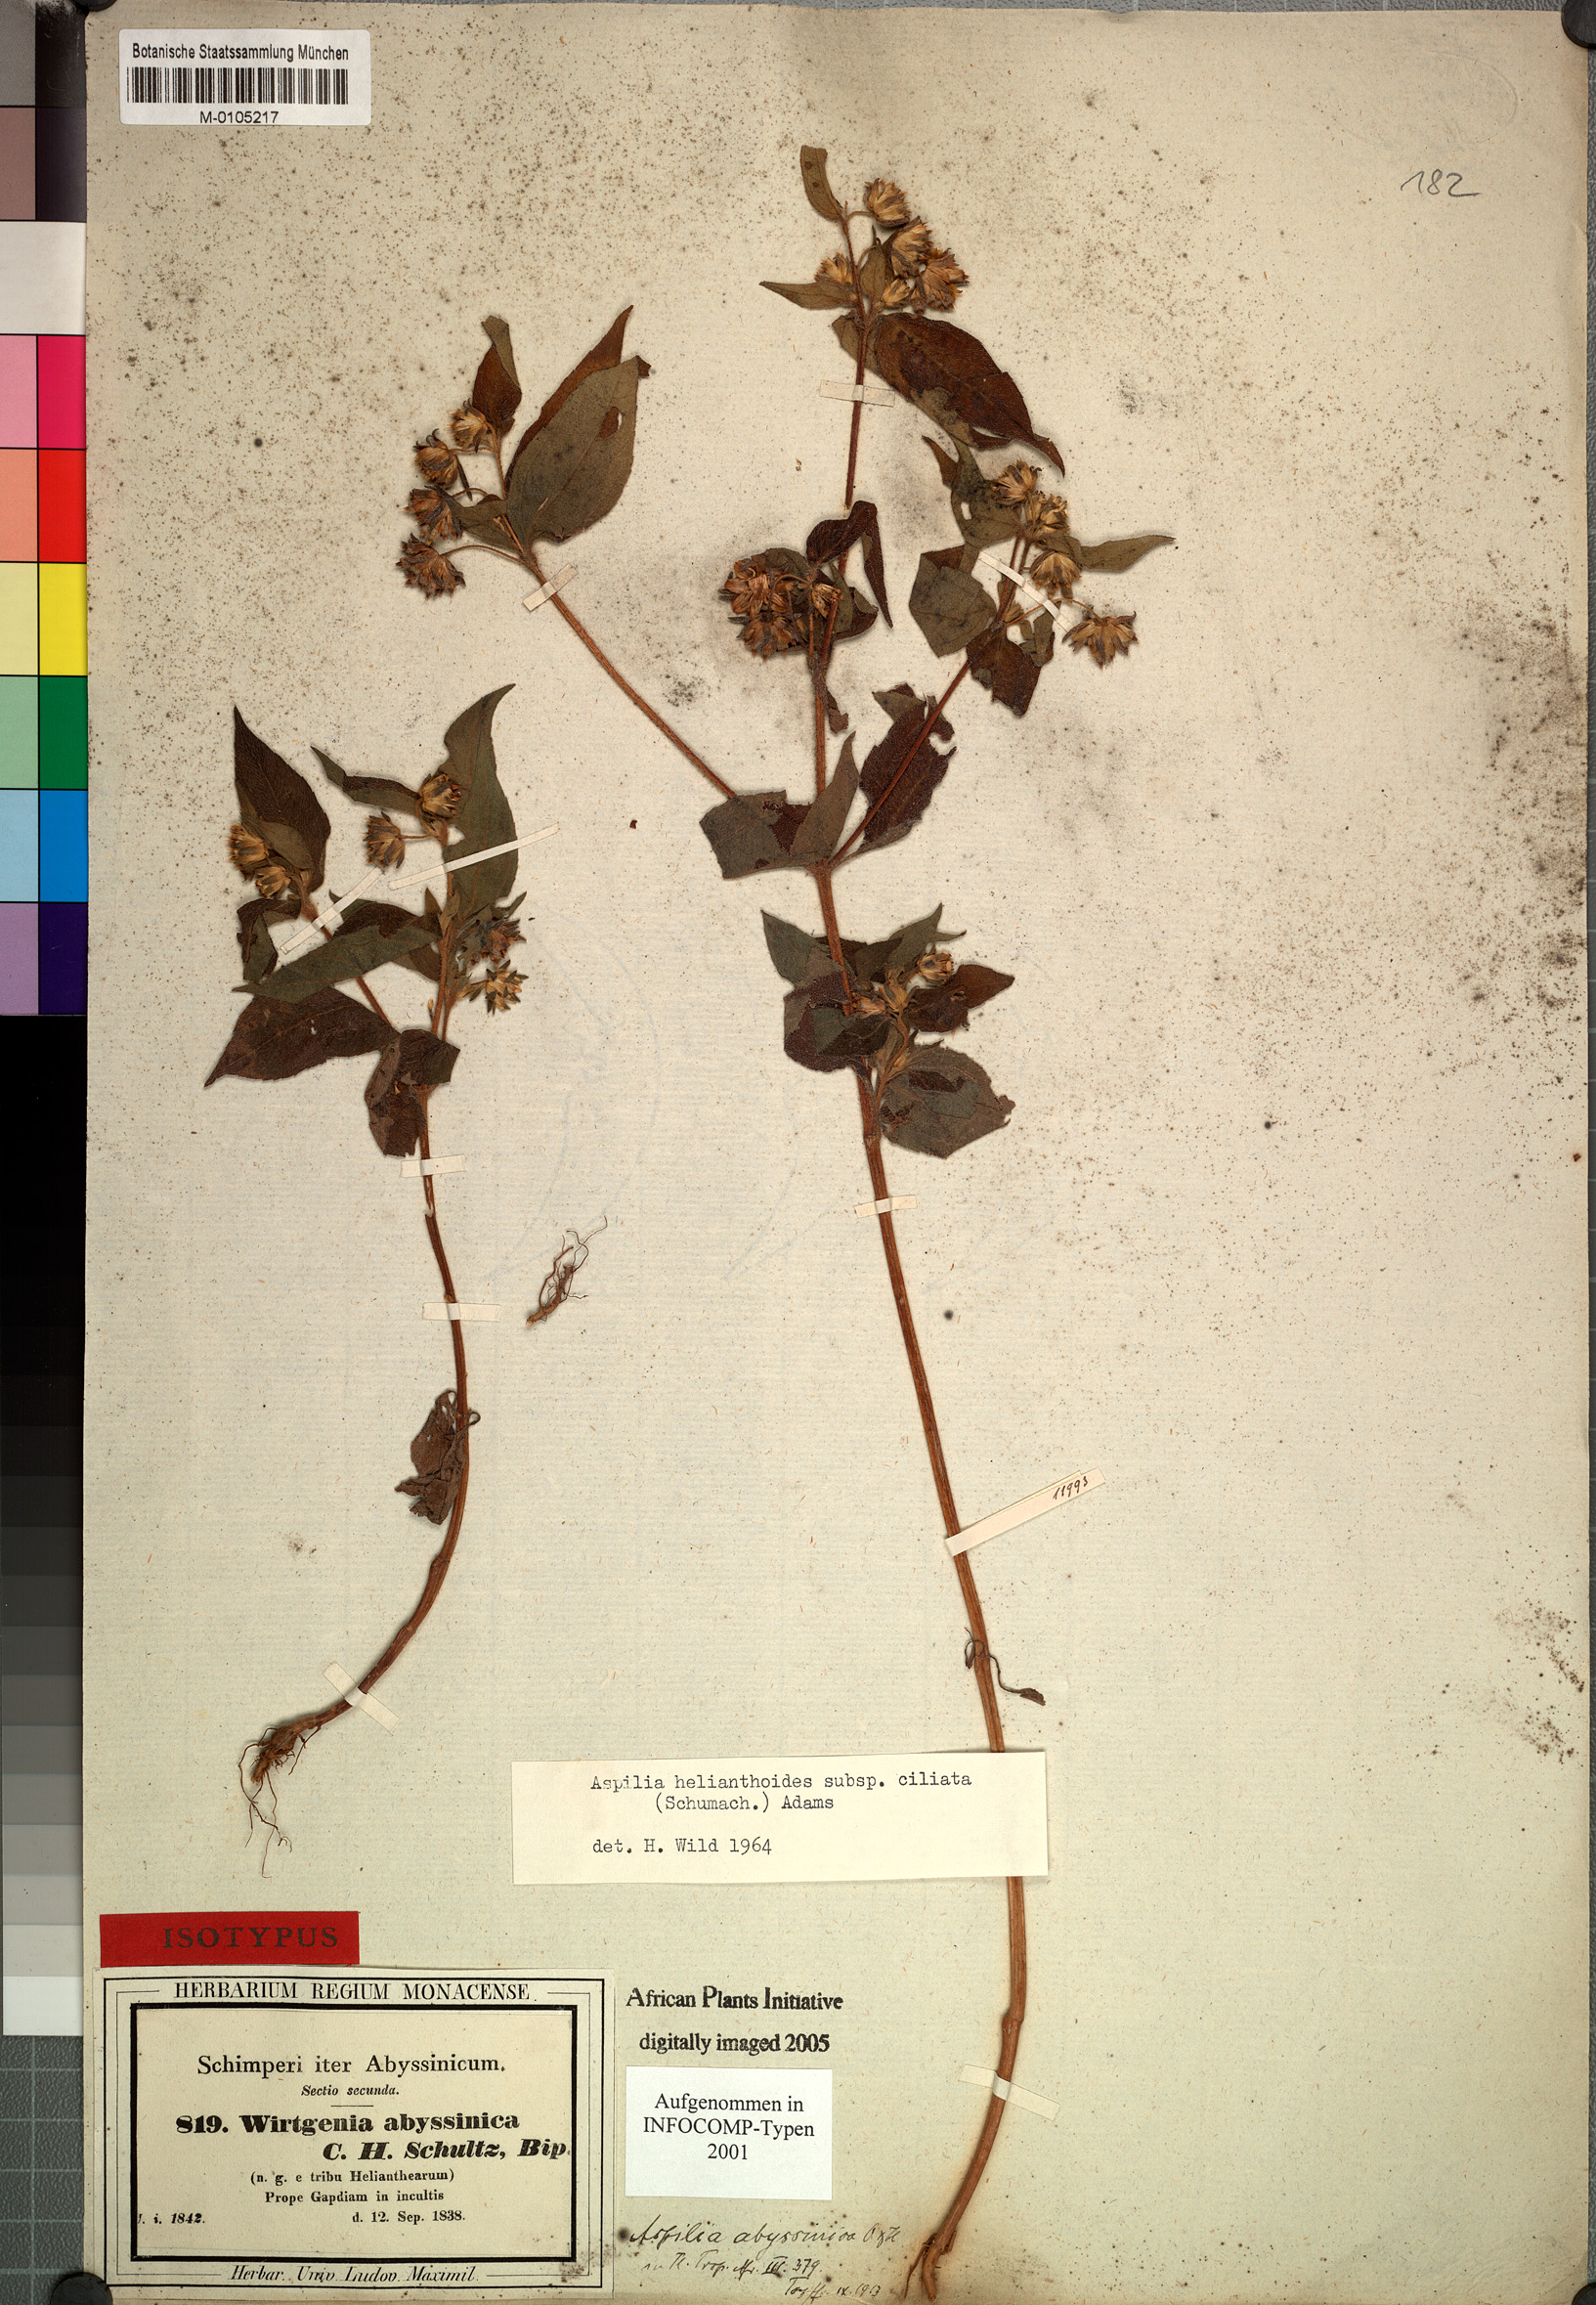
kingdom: Plantae
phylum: Tracheophyta
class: Magnoliopsida
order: Asterales
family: Asteraceae
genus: Aspilia
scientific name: Aspilia ciliata
